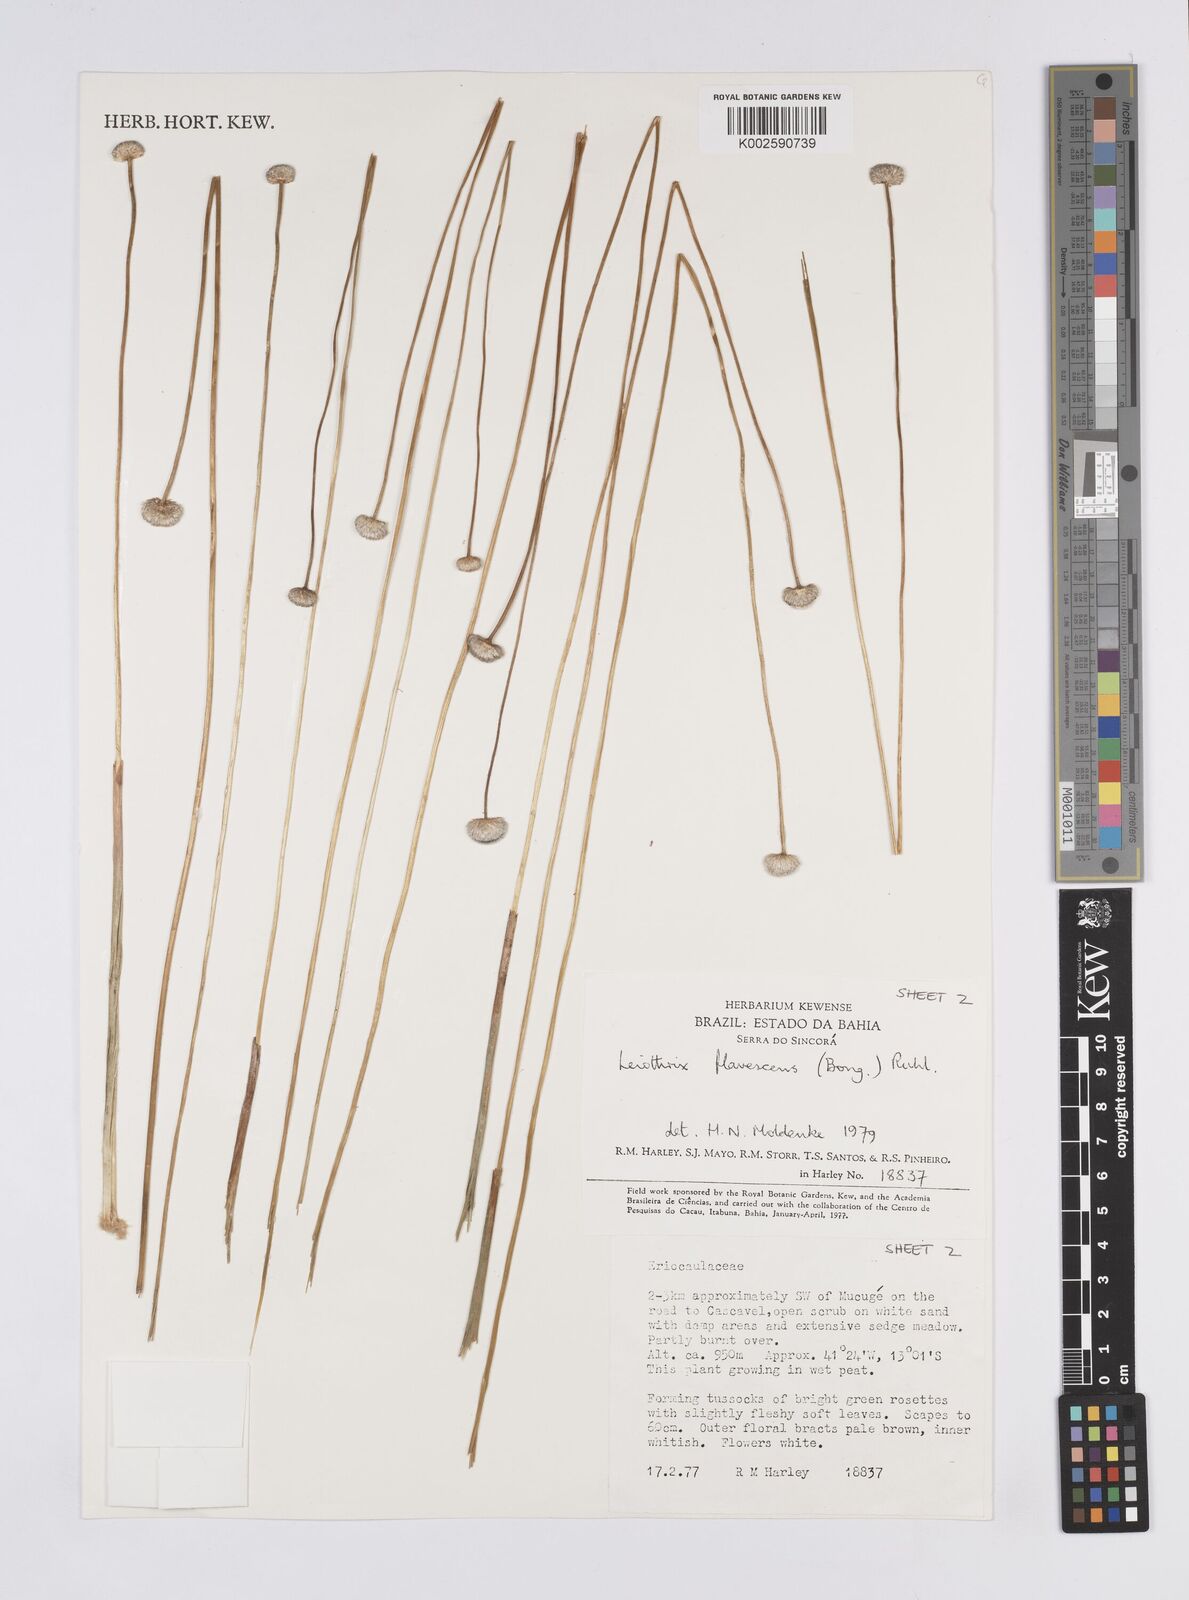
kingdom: Plantae
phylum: Tracheophyta
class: Liliopsida
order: Poales
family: Eriocaulaceae
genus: Leiothrix
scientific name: Leiothrix flavescens
